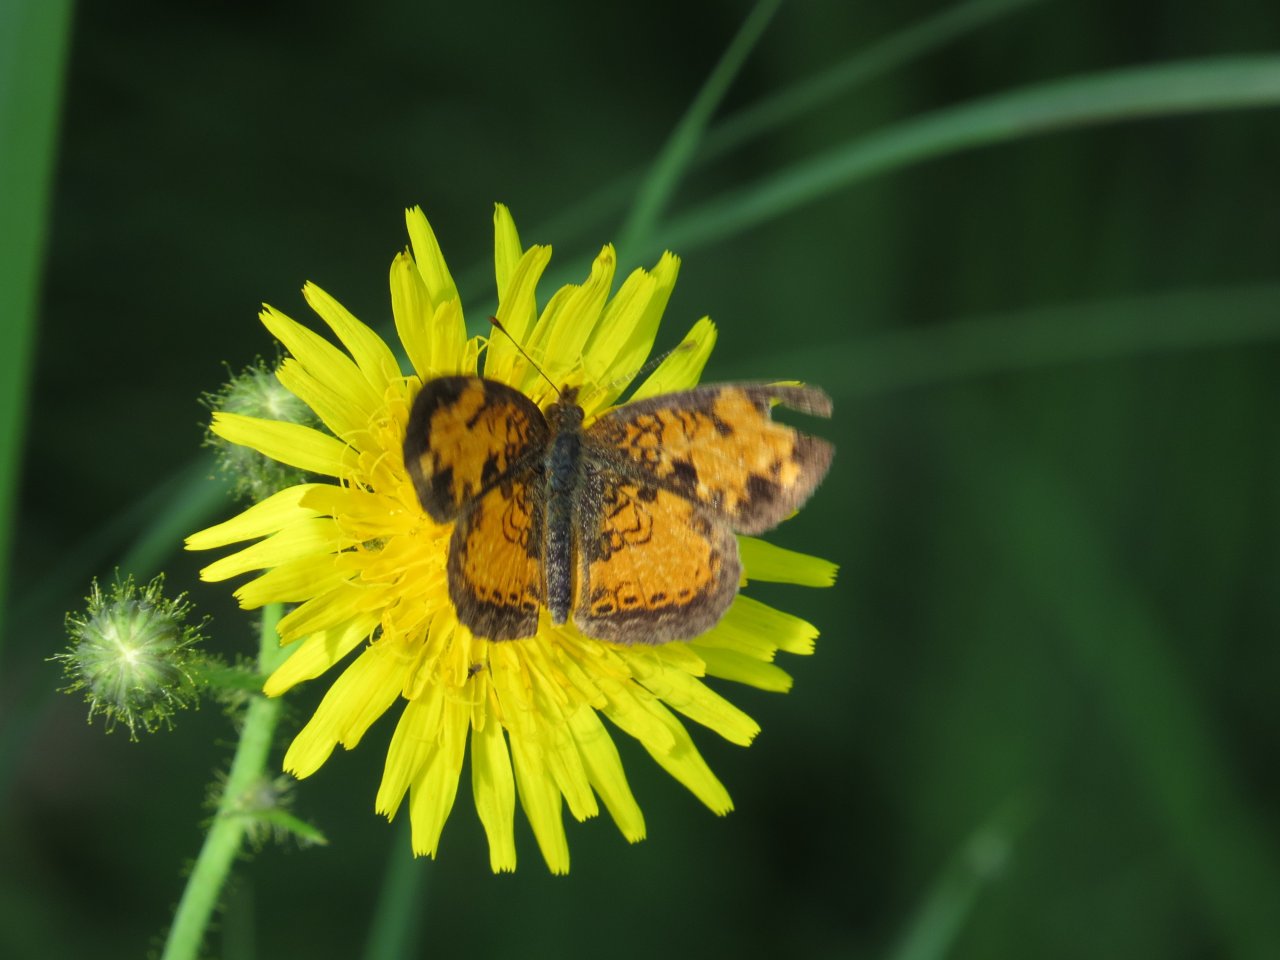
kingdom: Animalia
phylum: Arthropoda
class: Insecta
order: Lepidoptera
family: Nymphalidae
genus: Phyciodes
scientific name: Phyciodes tharos
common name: Northern Crescent
